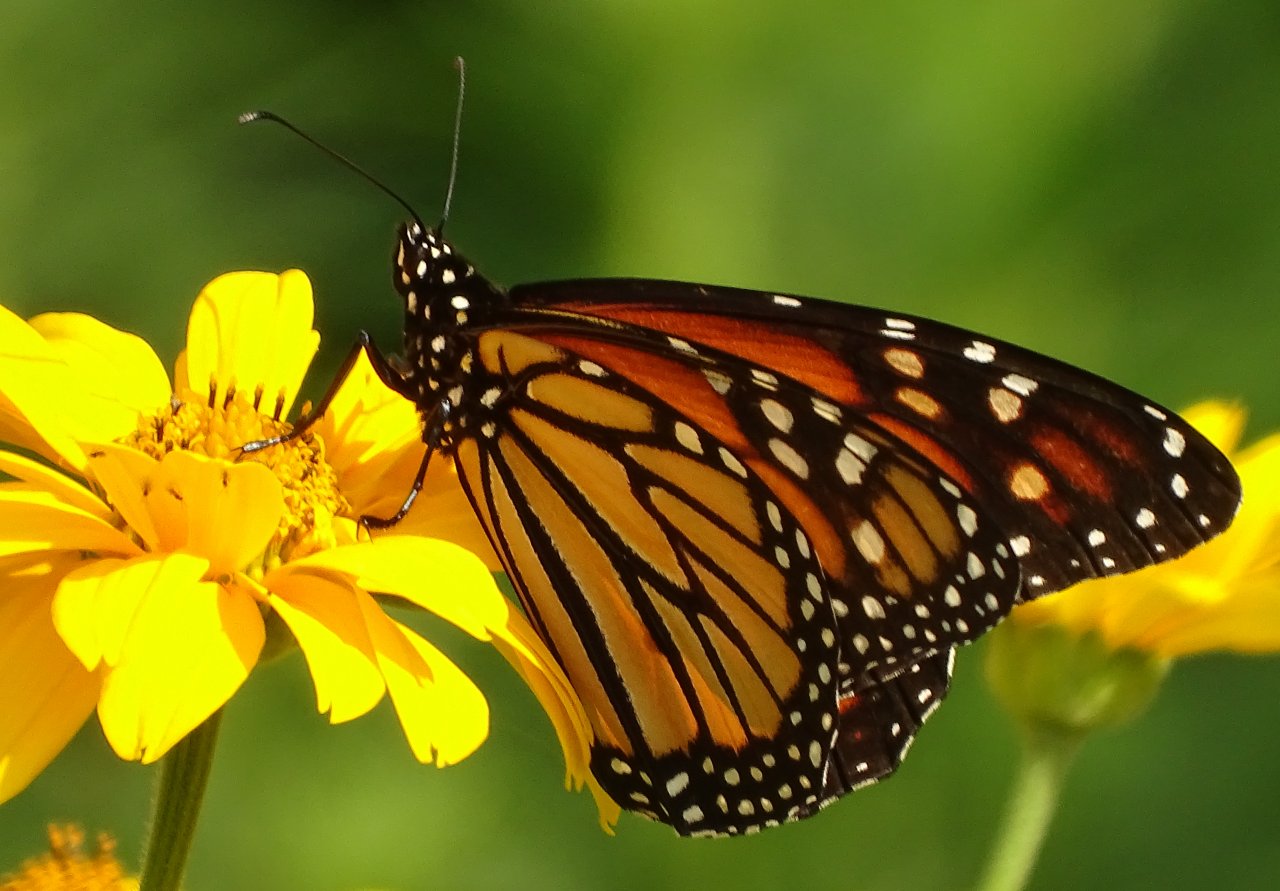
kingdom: Animalia
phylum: Arthropoda
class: Insecta
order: Lepidoptera
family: Nymphalidae
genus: Danaus
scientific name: Danaus plexippus
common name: Monarch
